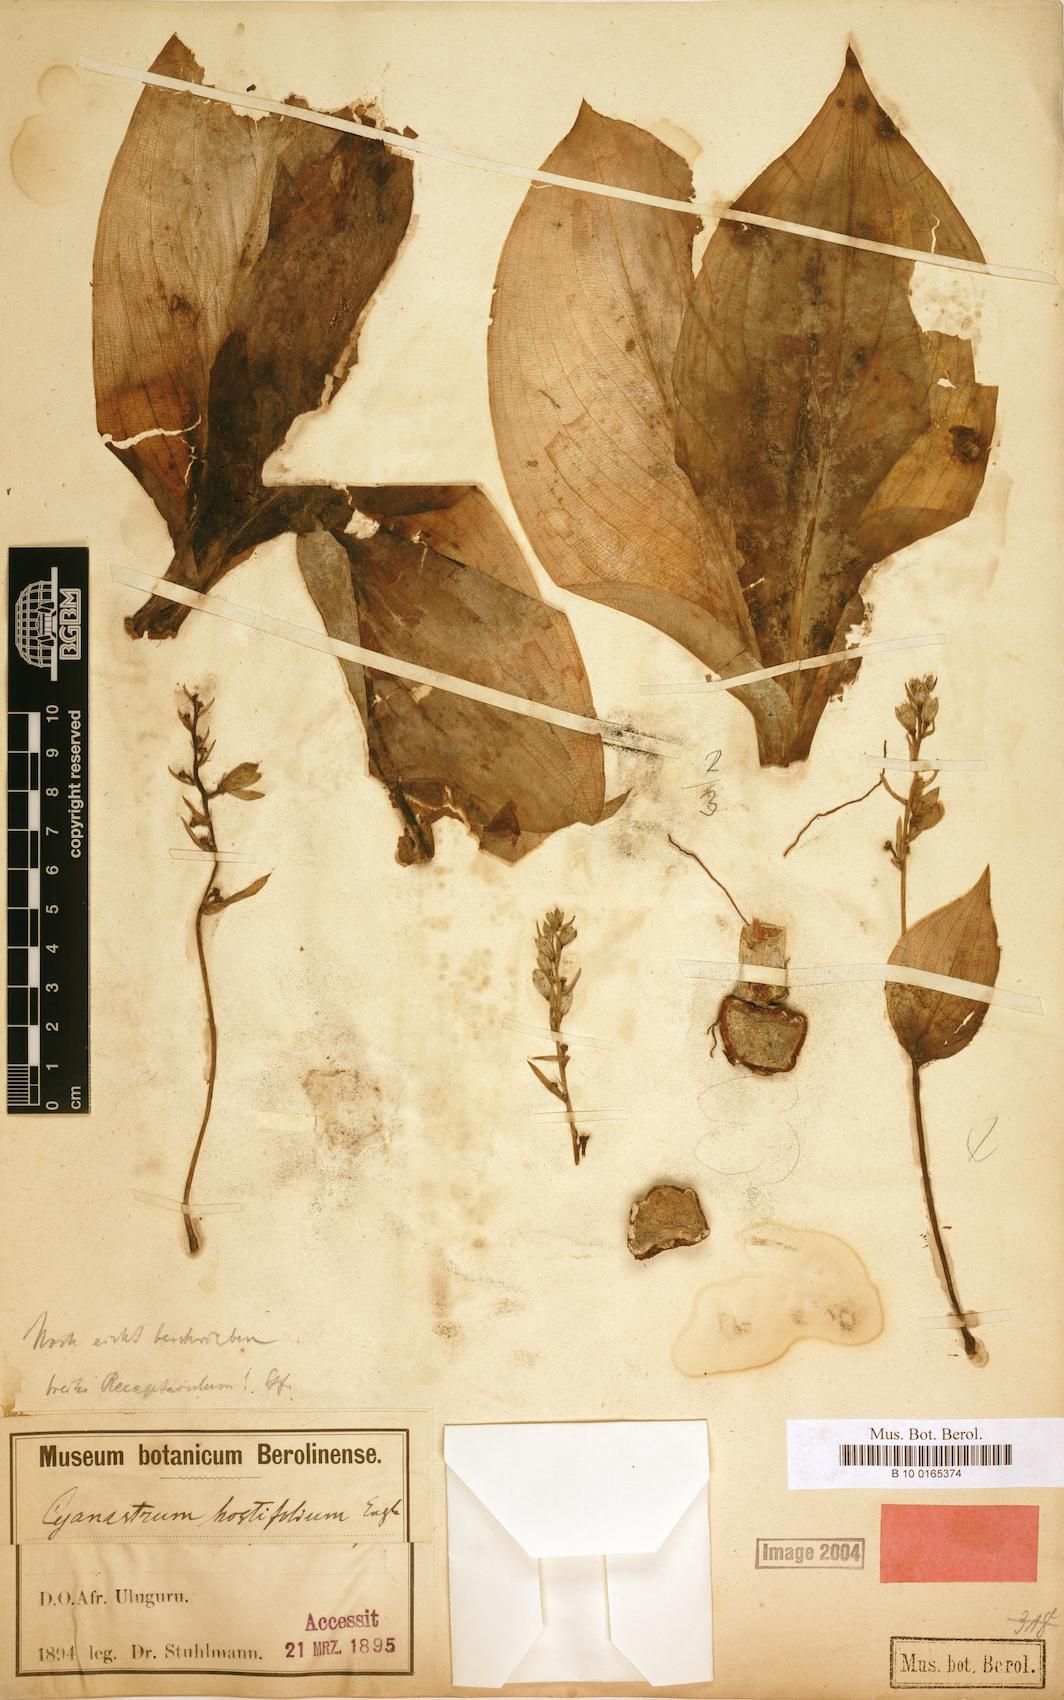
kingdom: Plantae
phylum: Tracheophyta
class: Liliopsida
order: Asparagales
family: Tecophilaeaceae
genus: Kabuyea
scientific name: Kabuyea hostifolia
